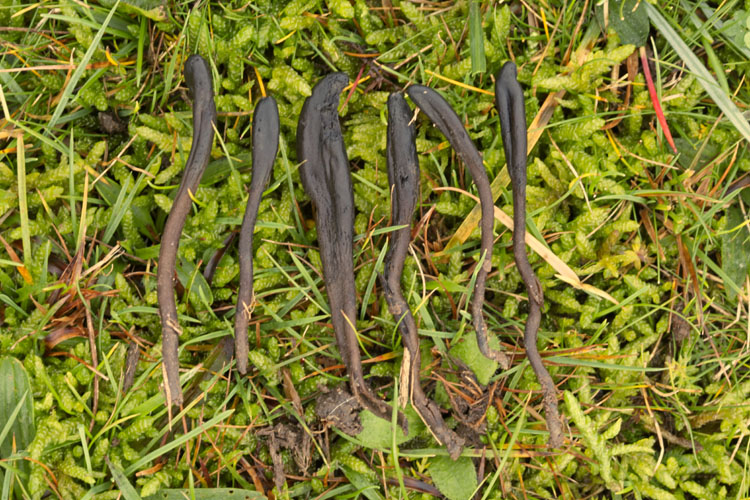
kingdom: Fungi
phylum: Ascomycota
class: Geoglossomycetes
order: Geoglossales
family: Geoglossaceae
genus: Geoglossum
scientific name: Geoglossum fallax
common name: småskællet jordtunge
